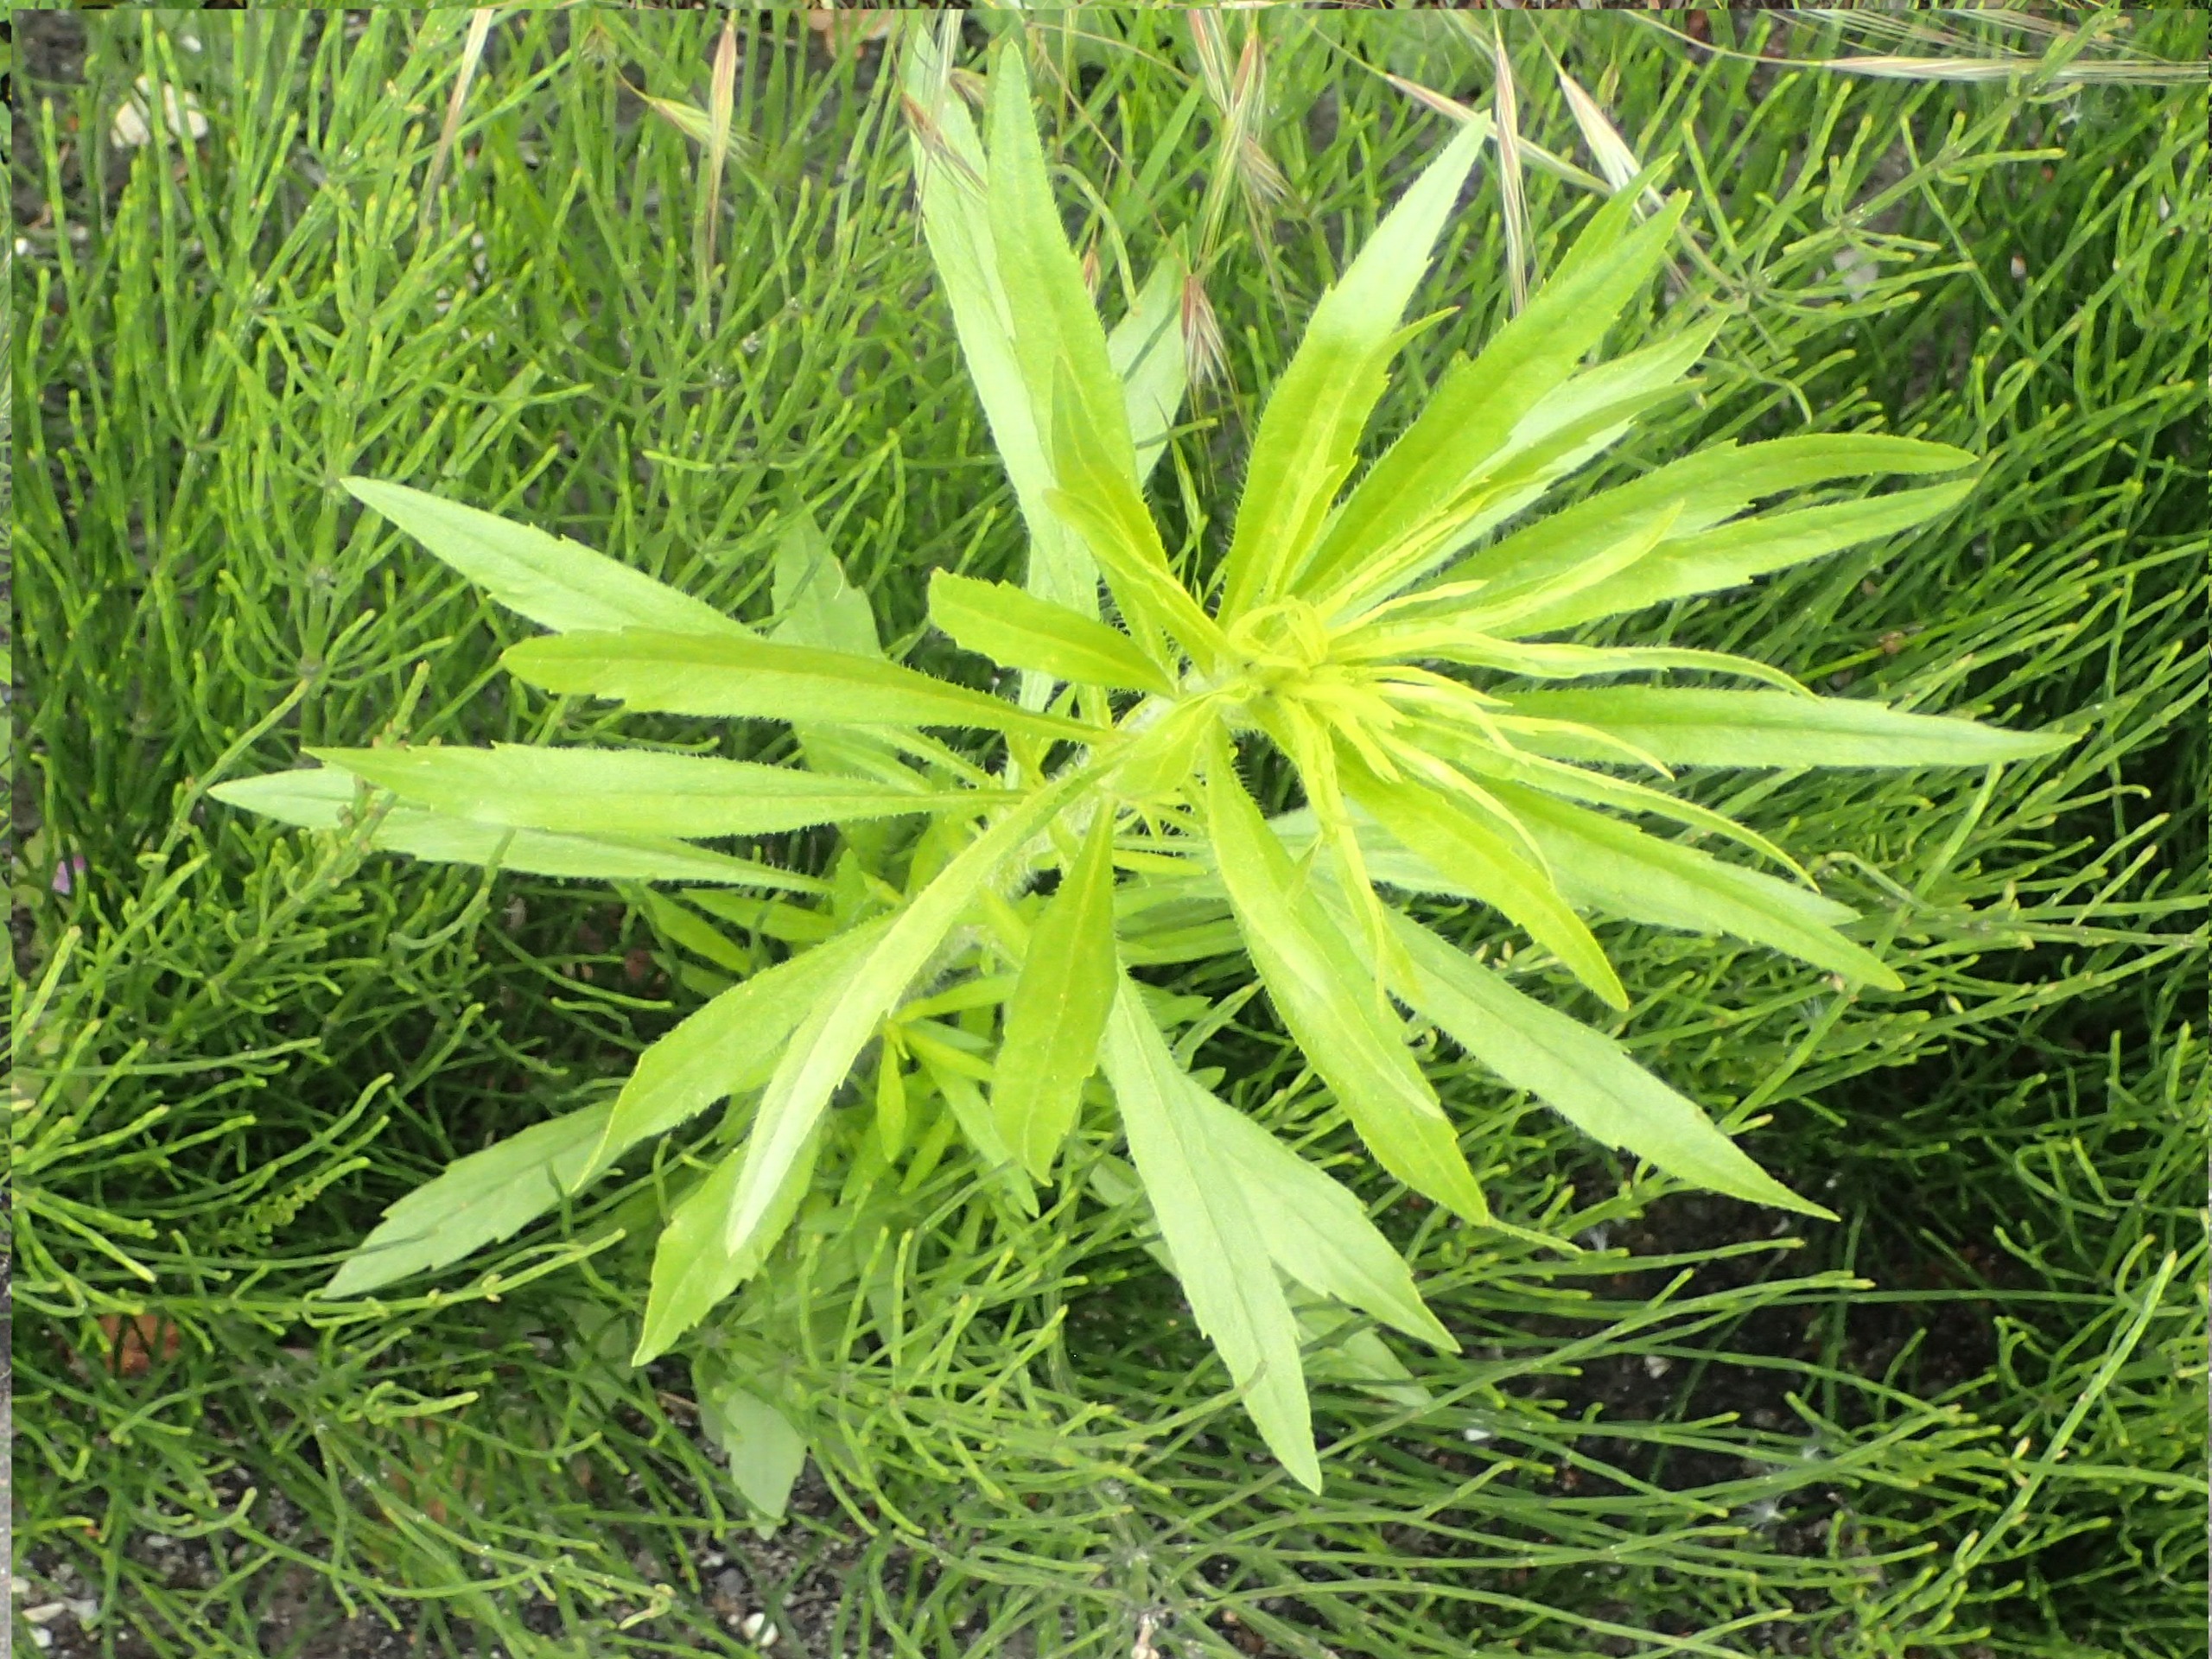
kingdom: Plantae
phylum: Tracheophyta
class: Magnoliopsida
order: Asterales
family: Asteraceae
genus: Erigeron
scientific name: Erigeron canadensis
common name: Kanadisk bakkestjerne
